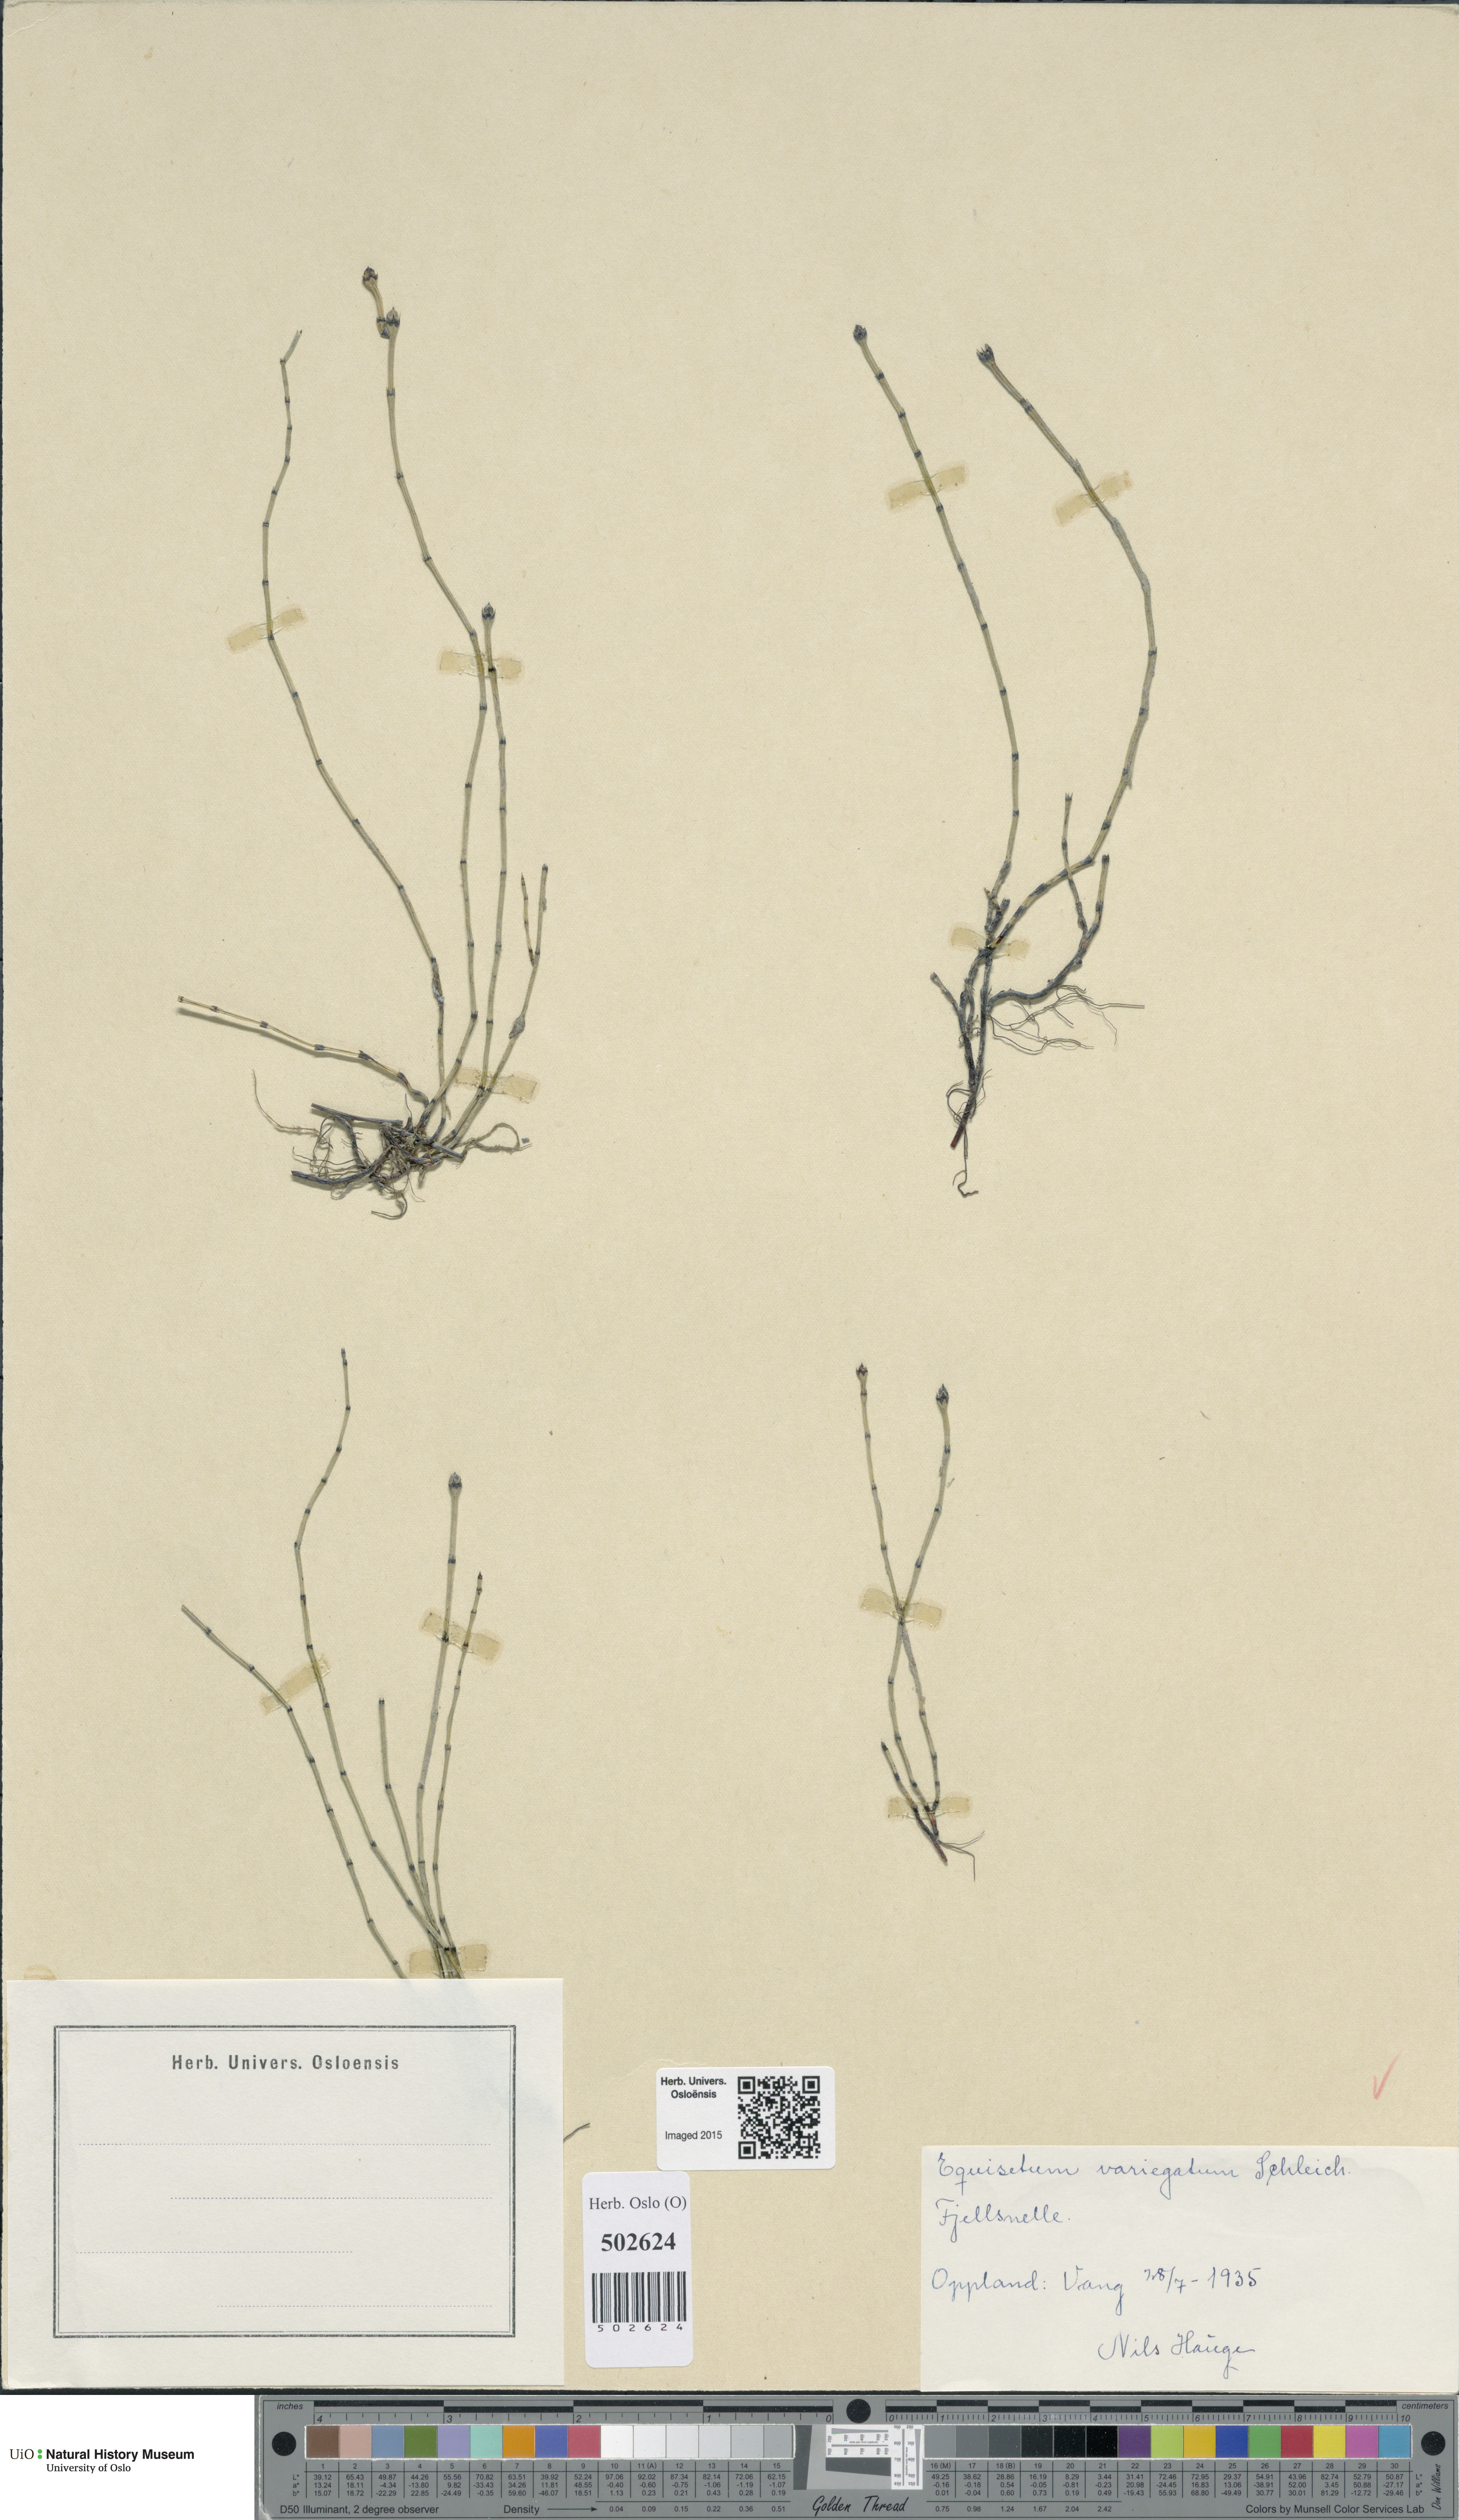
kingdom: Plantae
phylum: Tracheophyta
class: Polypodiopsida
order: Equisetales
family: Equisetaceae
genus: Equisetum
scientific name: Equisetum variegatum
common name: Variegated horsetail
